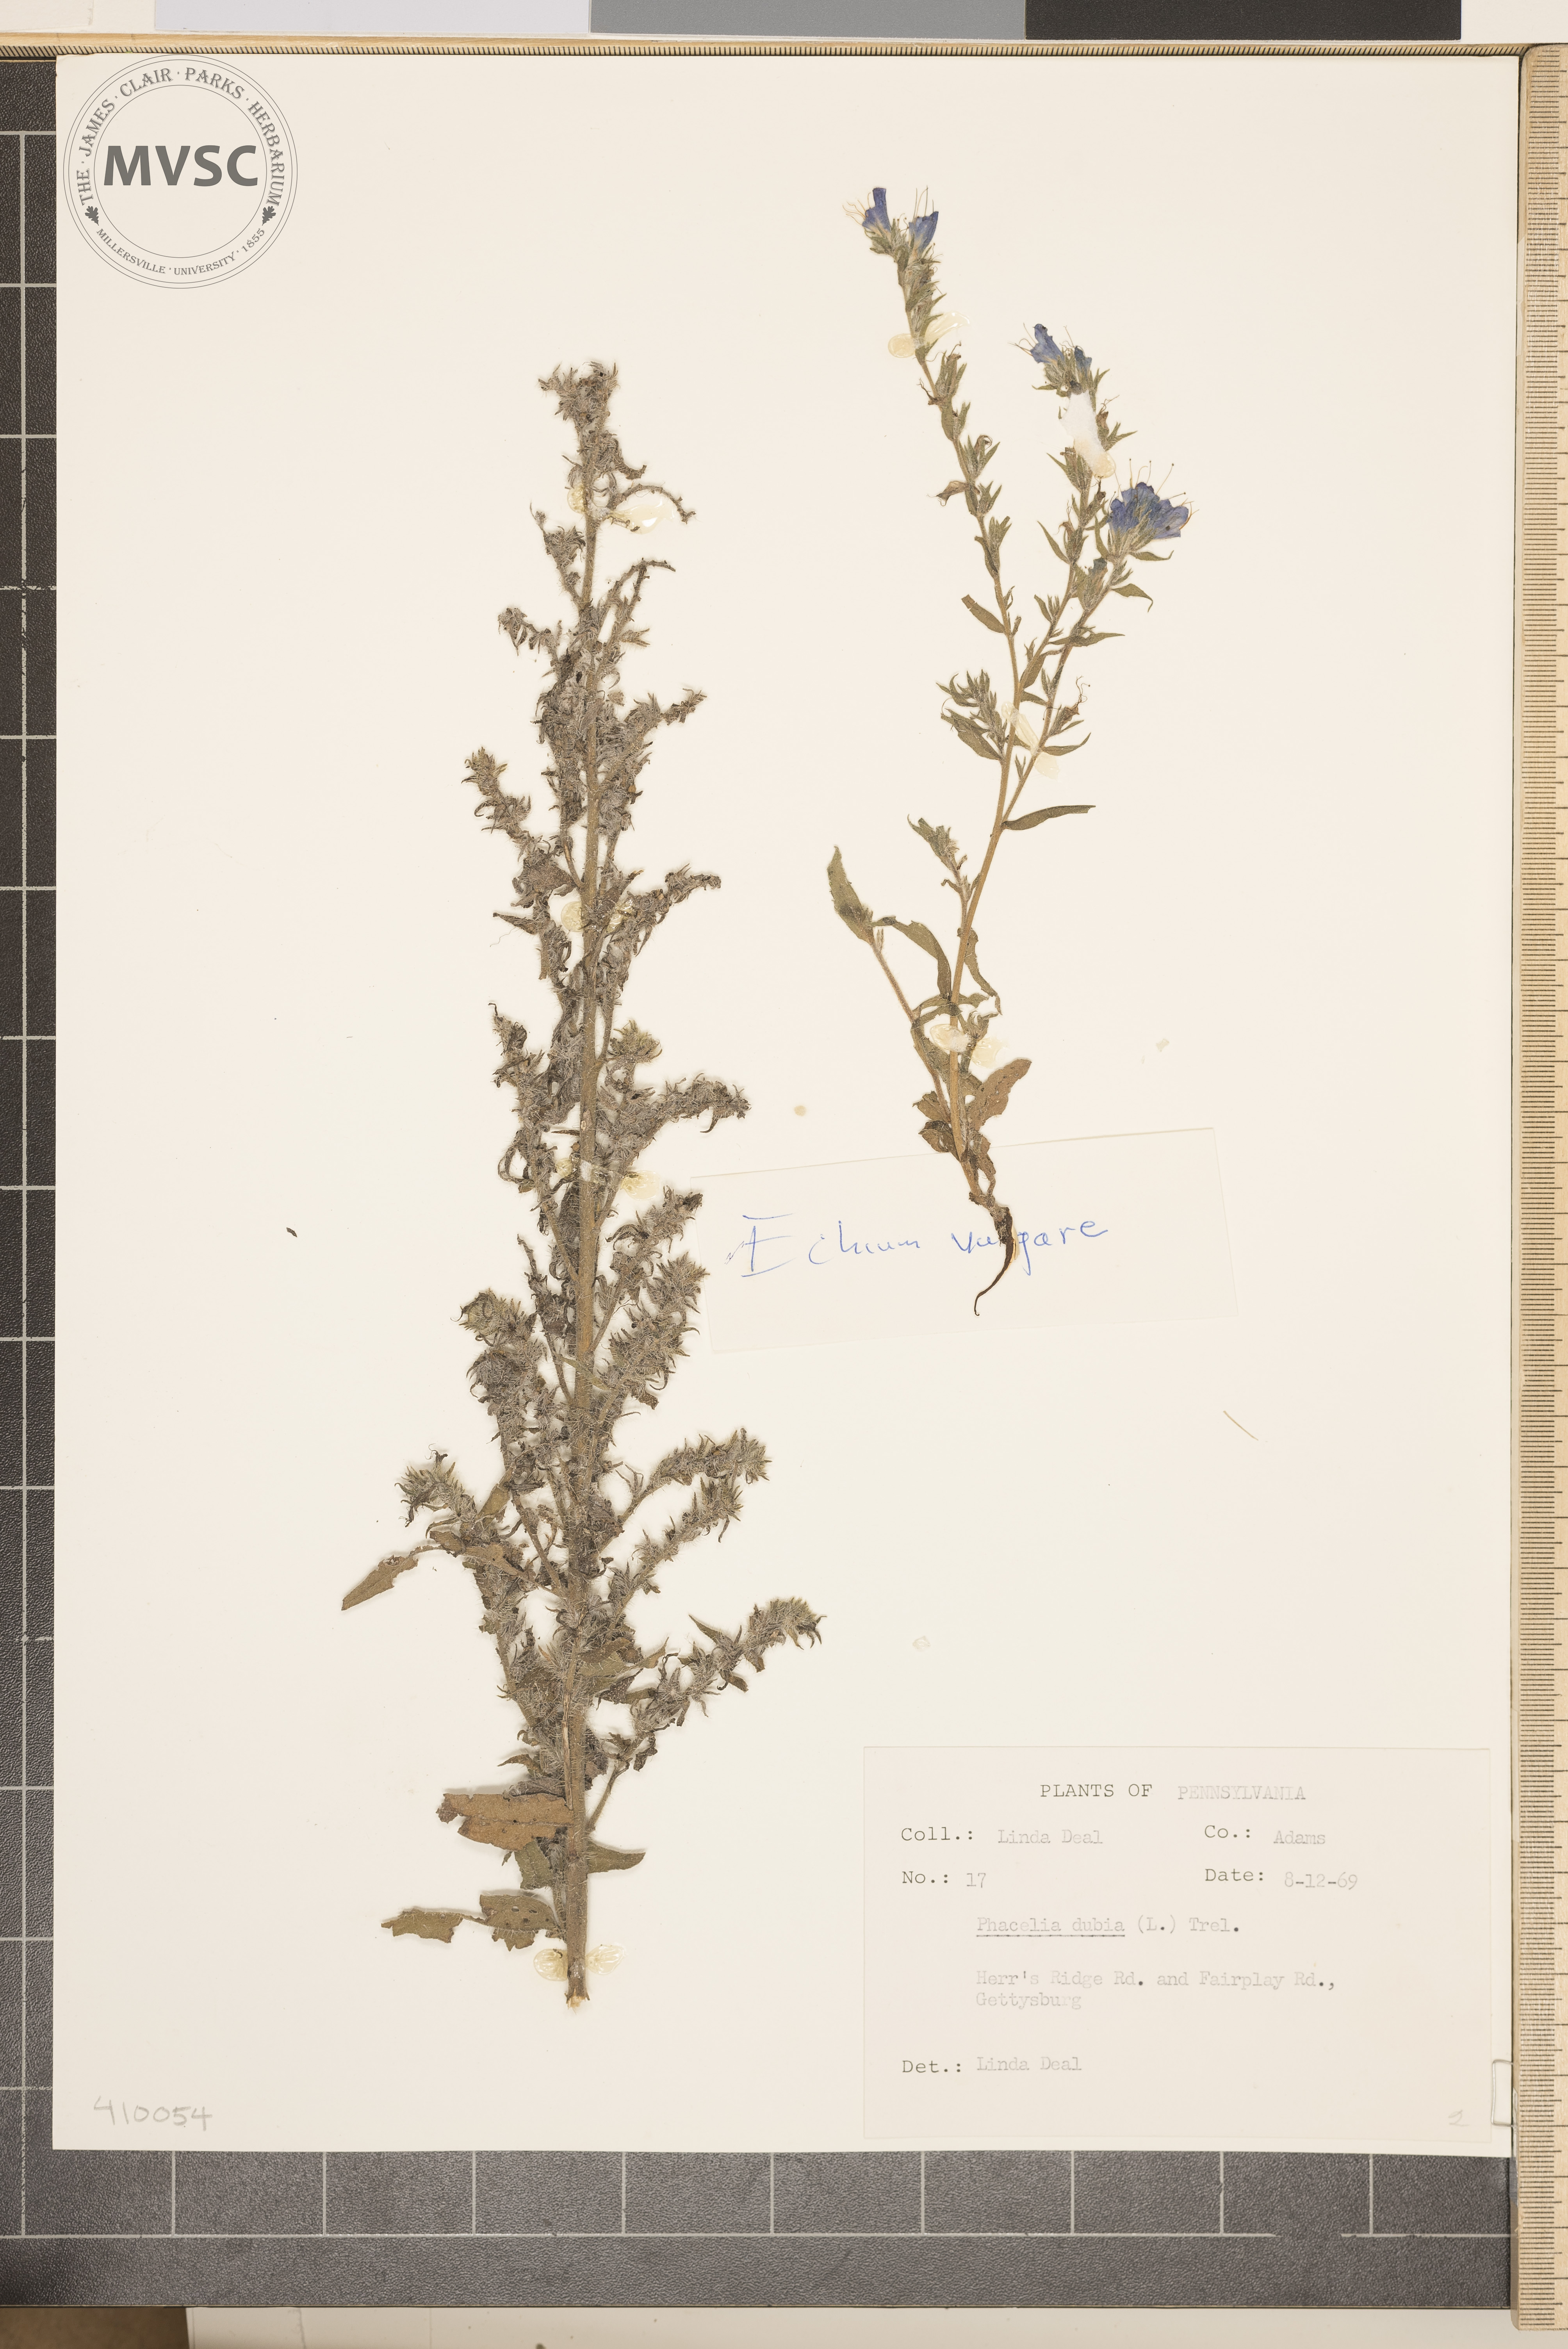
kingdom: Plantae
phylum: Tracheophyta
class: Magnoliopsida
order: Boraginales
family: Boraginaceae
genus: Echium
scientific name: Echium vulgare
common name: Common viper's bugloss
